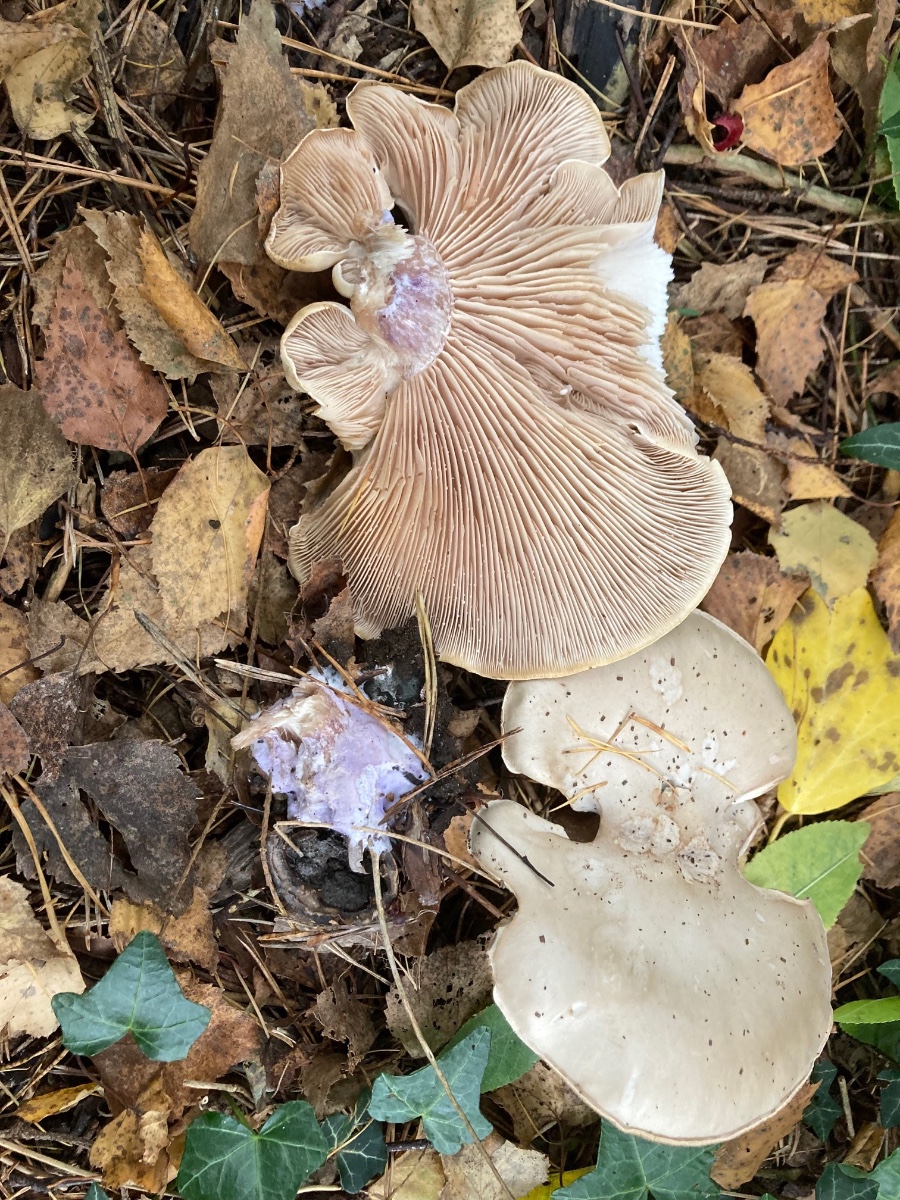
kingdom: Fungi
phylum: Basidiomycota
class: Agaricomycetes
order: Agaricales
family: Tricholomataceae
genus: Lepista
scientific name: Lepista personata
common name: bleg hekseringshat
